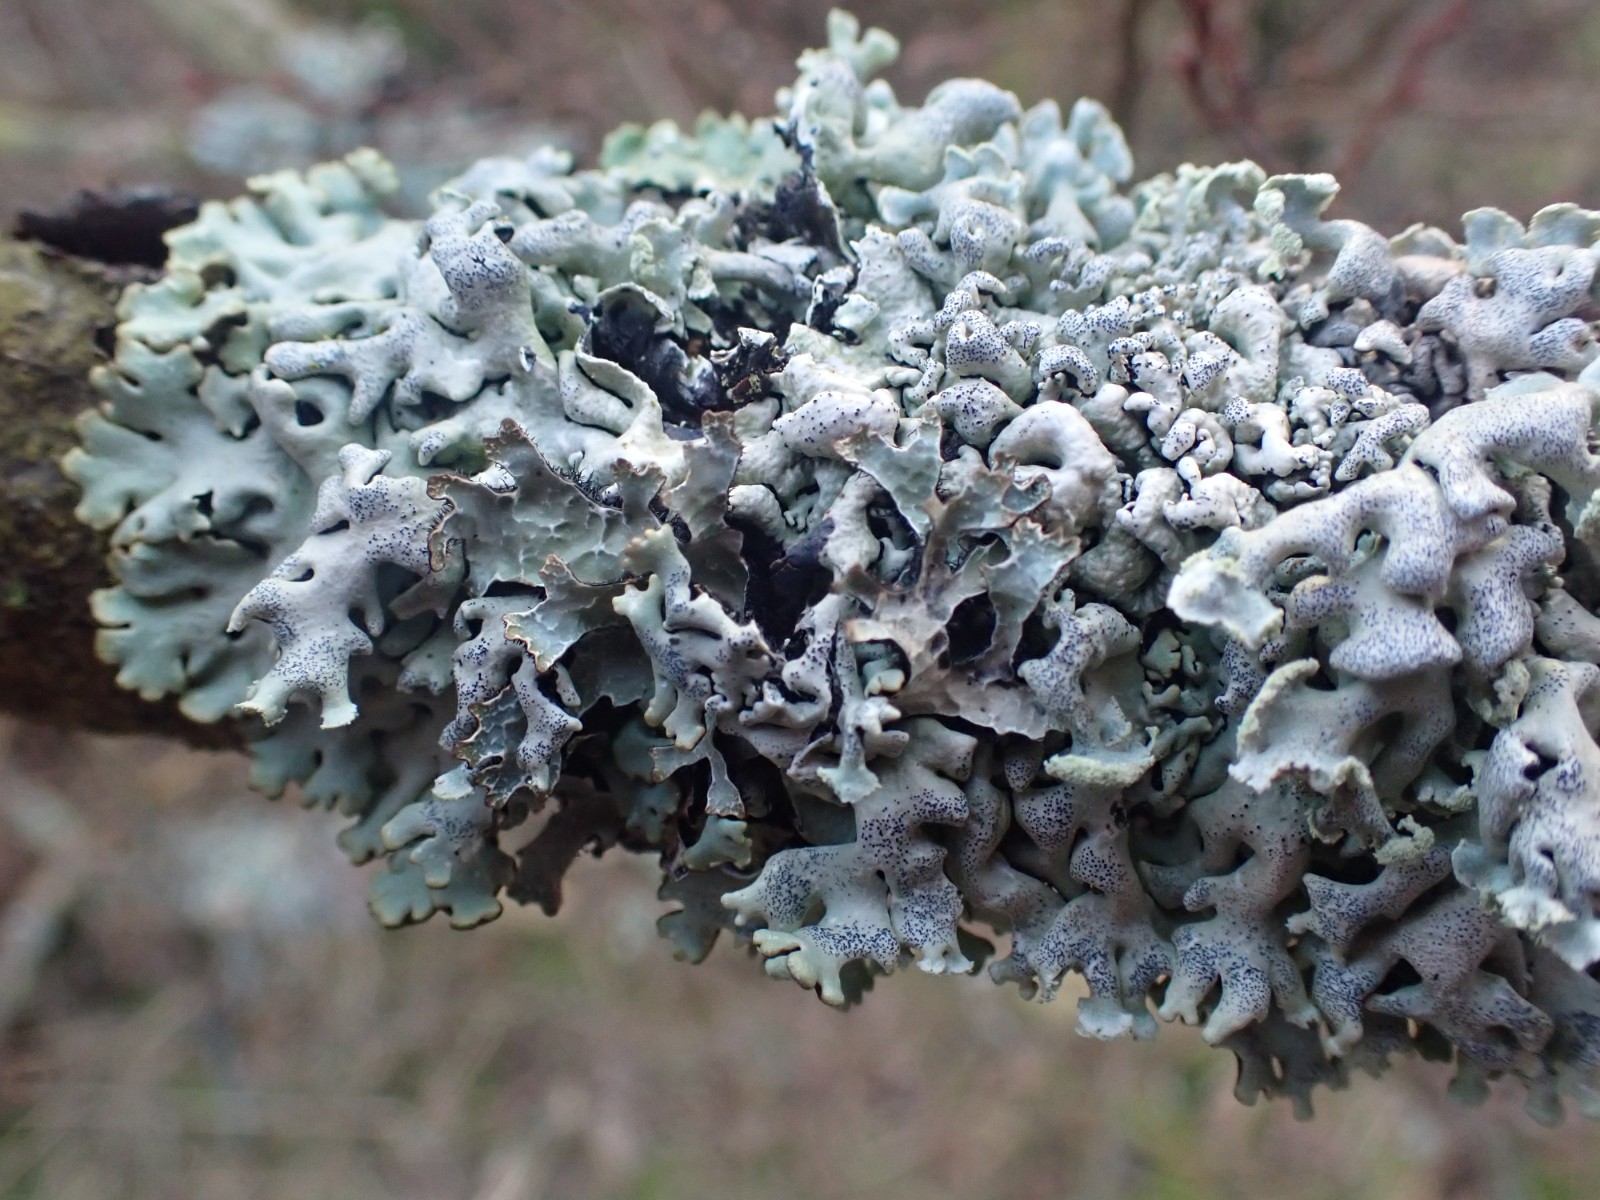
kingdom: Fungi
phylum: Ascomycota
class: Lecanoromycetes
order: Lecanorales
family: Parmeliaceae
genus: Hypogymnia
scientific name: Hypogymnia physodes
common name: almindelig kvistlav
